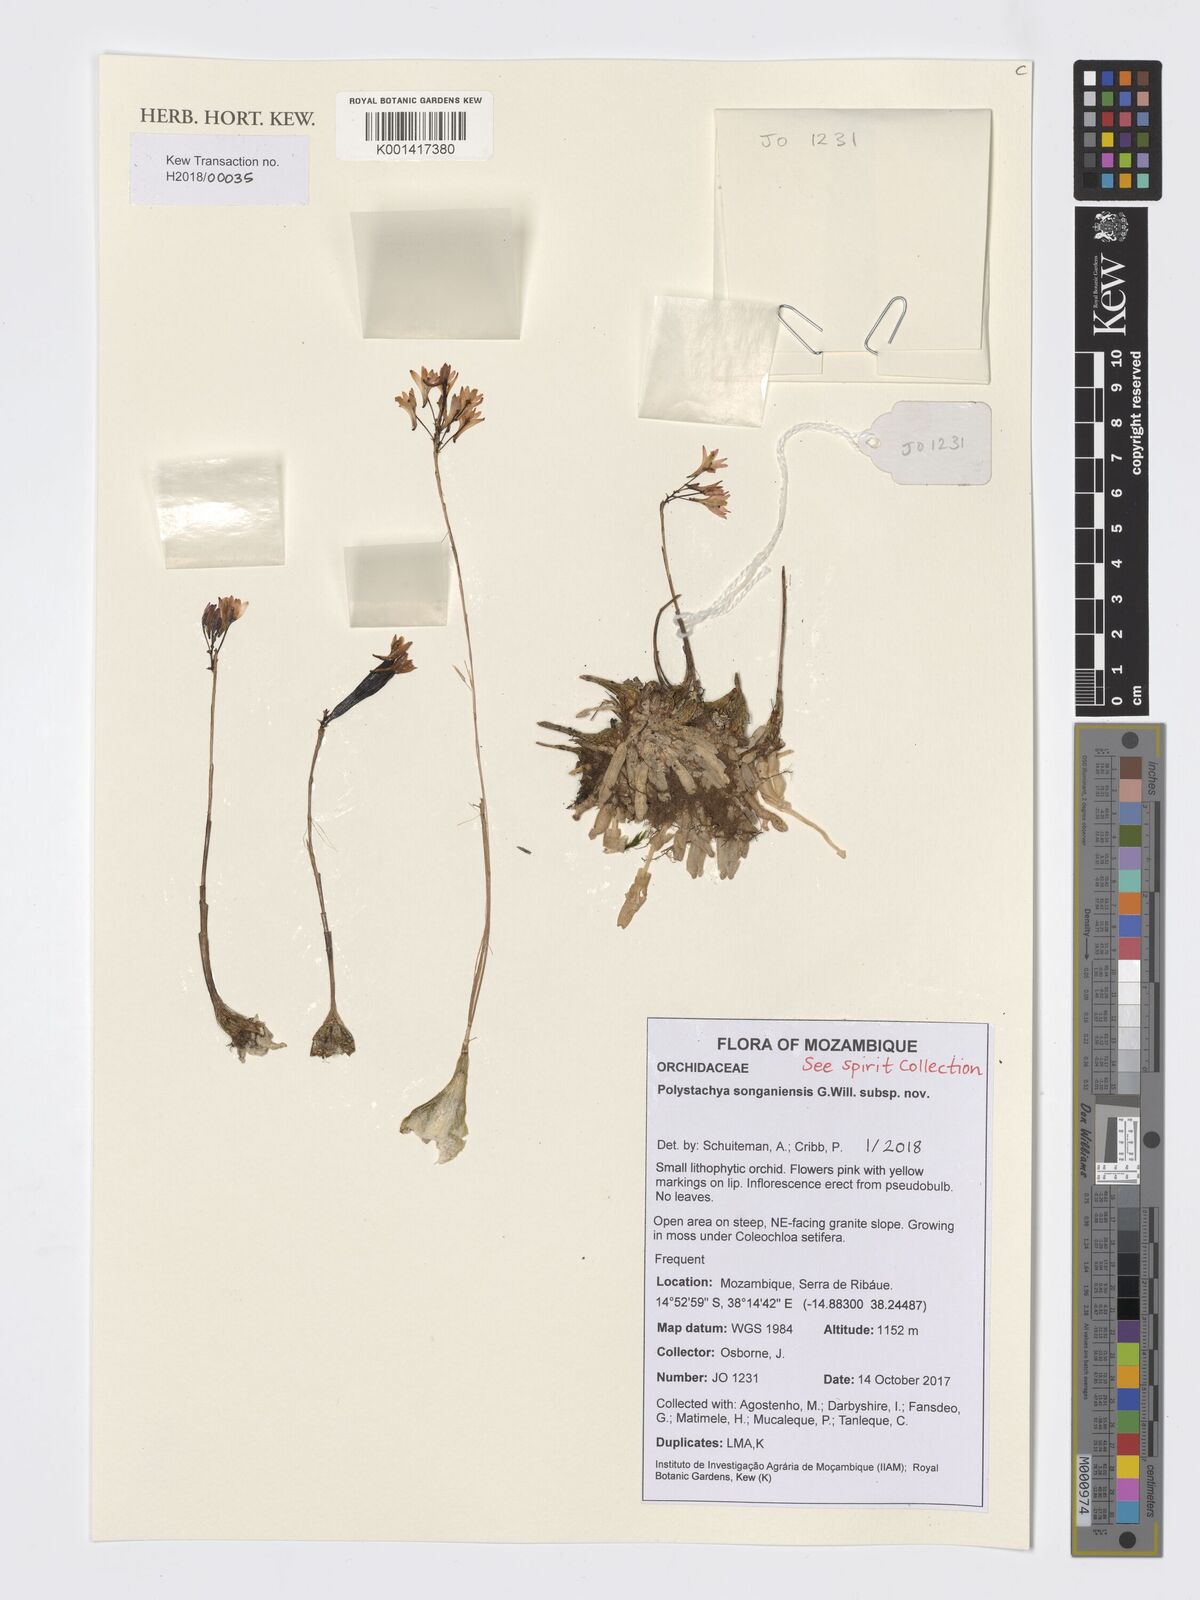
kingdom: Plantae
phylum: Tracheophyta
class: Liliopsida
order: Asparagales
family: Orchidaceae
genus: Polystachya
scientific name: Polystachya songaniensis
